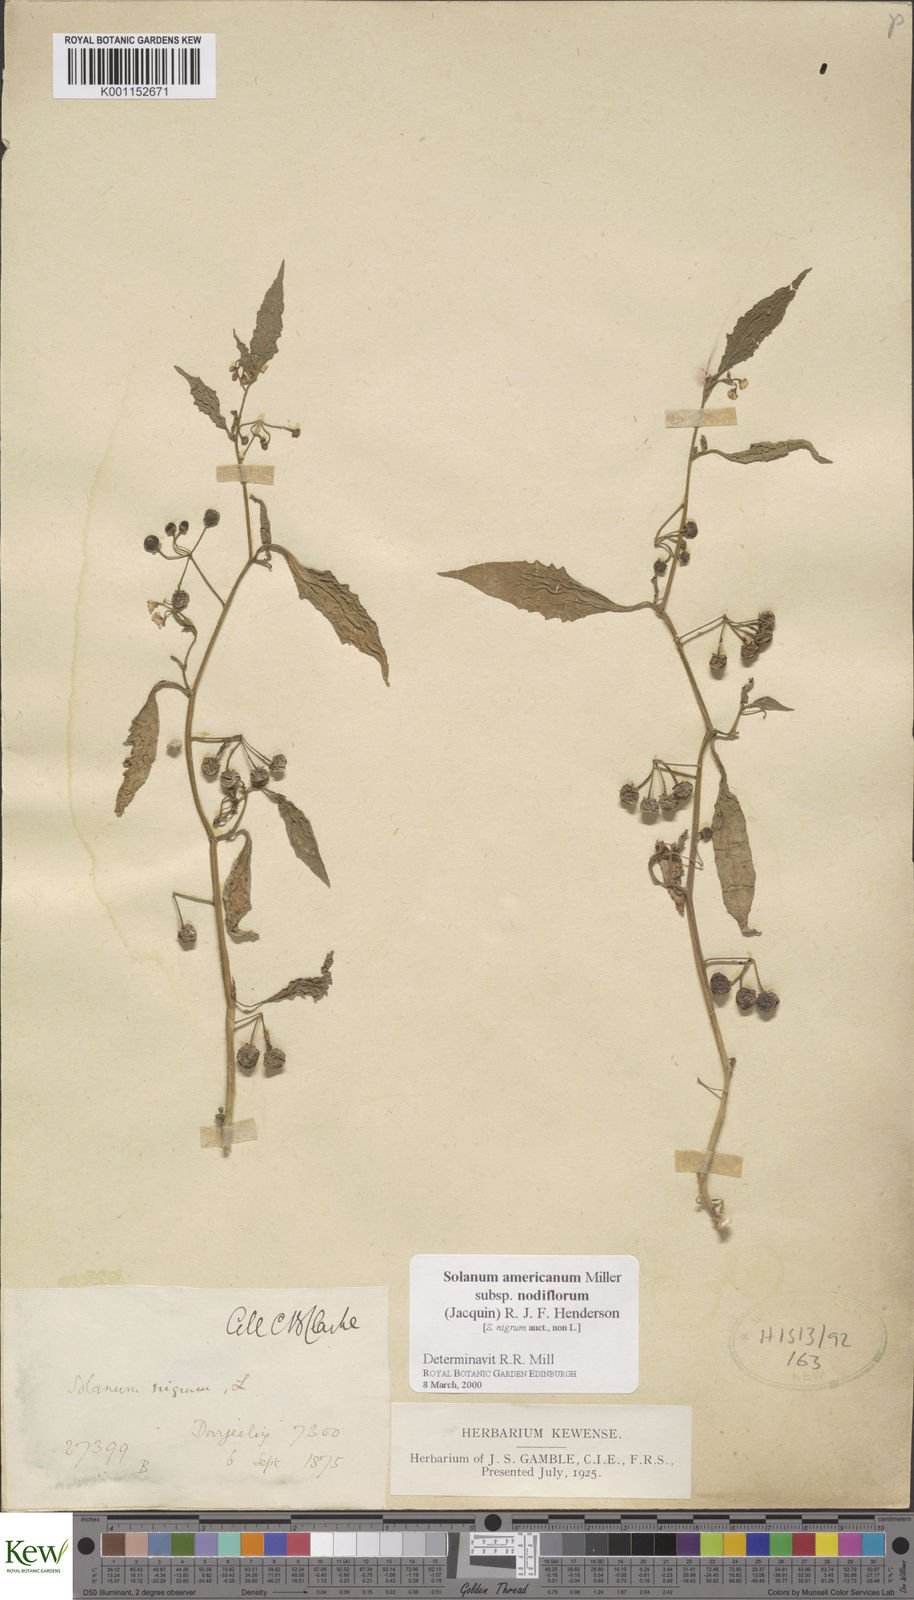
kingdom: Plantae
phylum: Tracheophyta
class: Magnoliopsida
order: Solanales
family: Solanaceae
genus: Solanum
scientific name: Solanum nigrum
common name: Black nightshade
